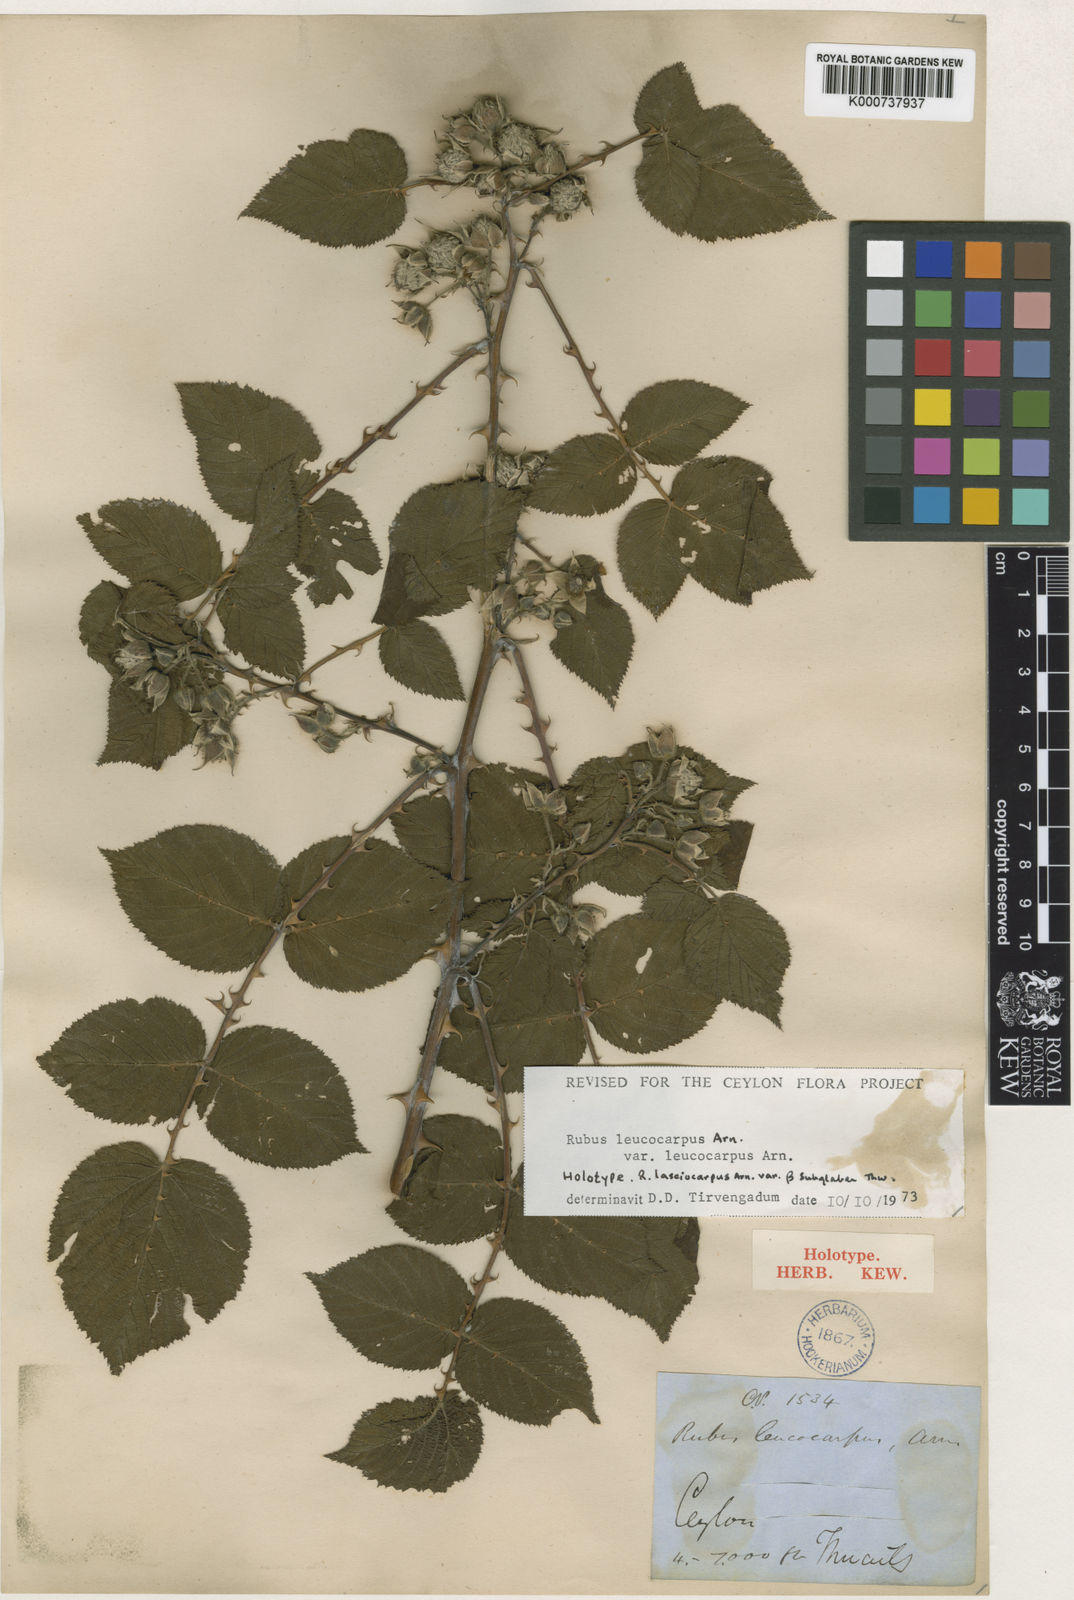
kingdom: Plantae
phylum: Tracheophyta
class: Magnoliopsida
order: Rosales
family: Rosaceae
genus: Rubus
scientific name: Rubus niveus
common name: Snowpeaks raspberry
